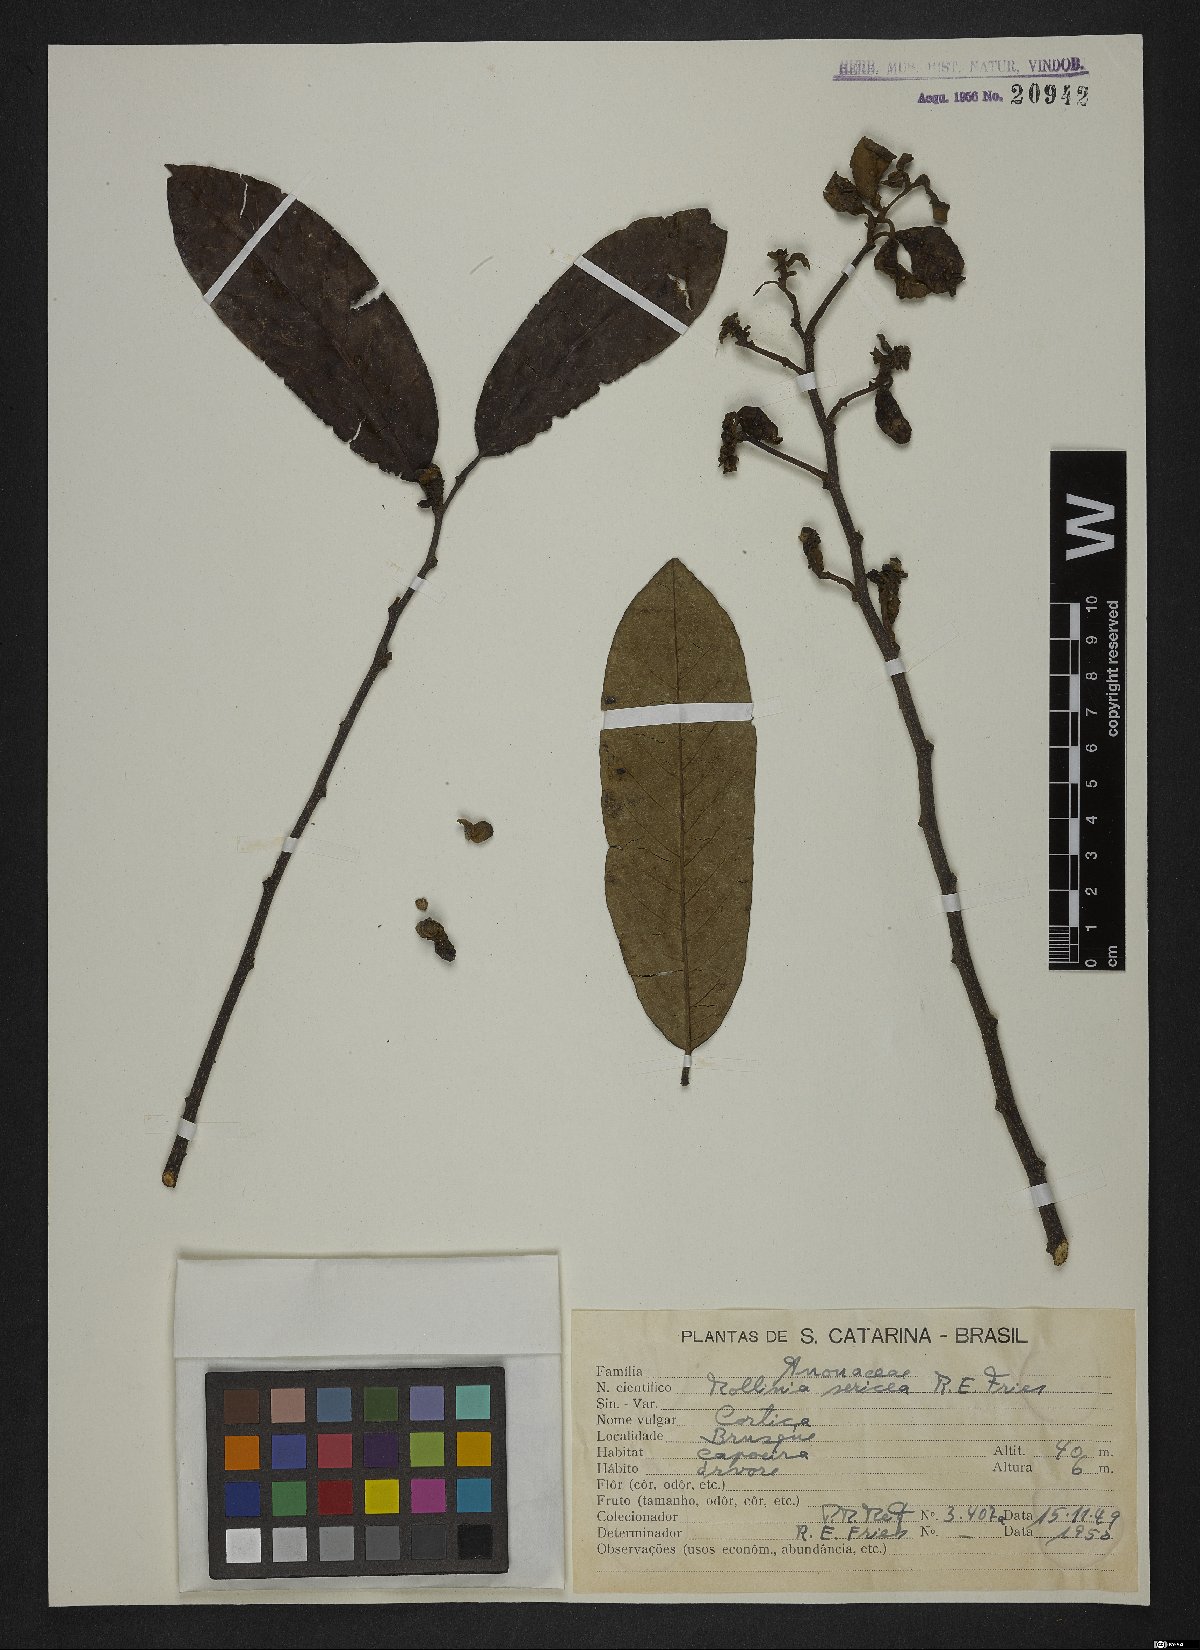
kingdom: Plantae
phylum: Tracheophyta
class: Magnoliopsida
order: Magnoliales
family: Annonaceae
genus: Annona
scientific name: Annona neosericea
